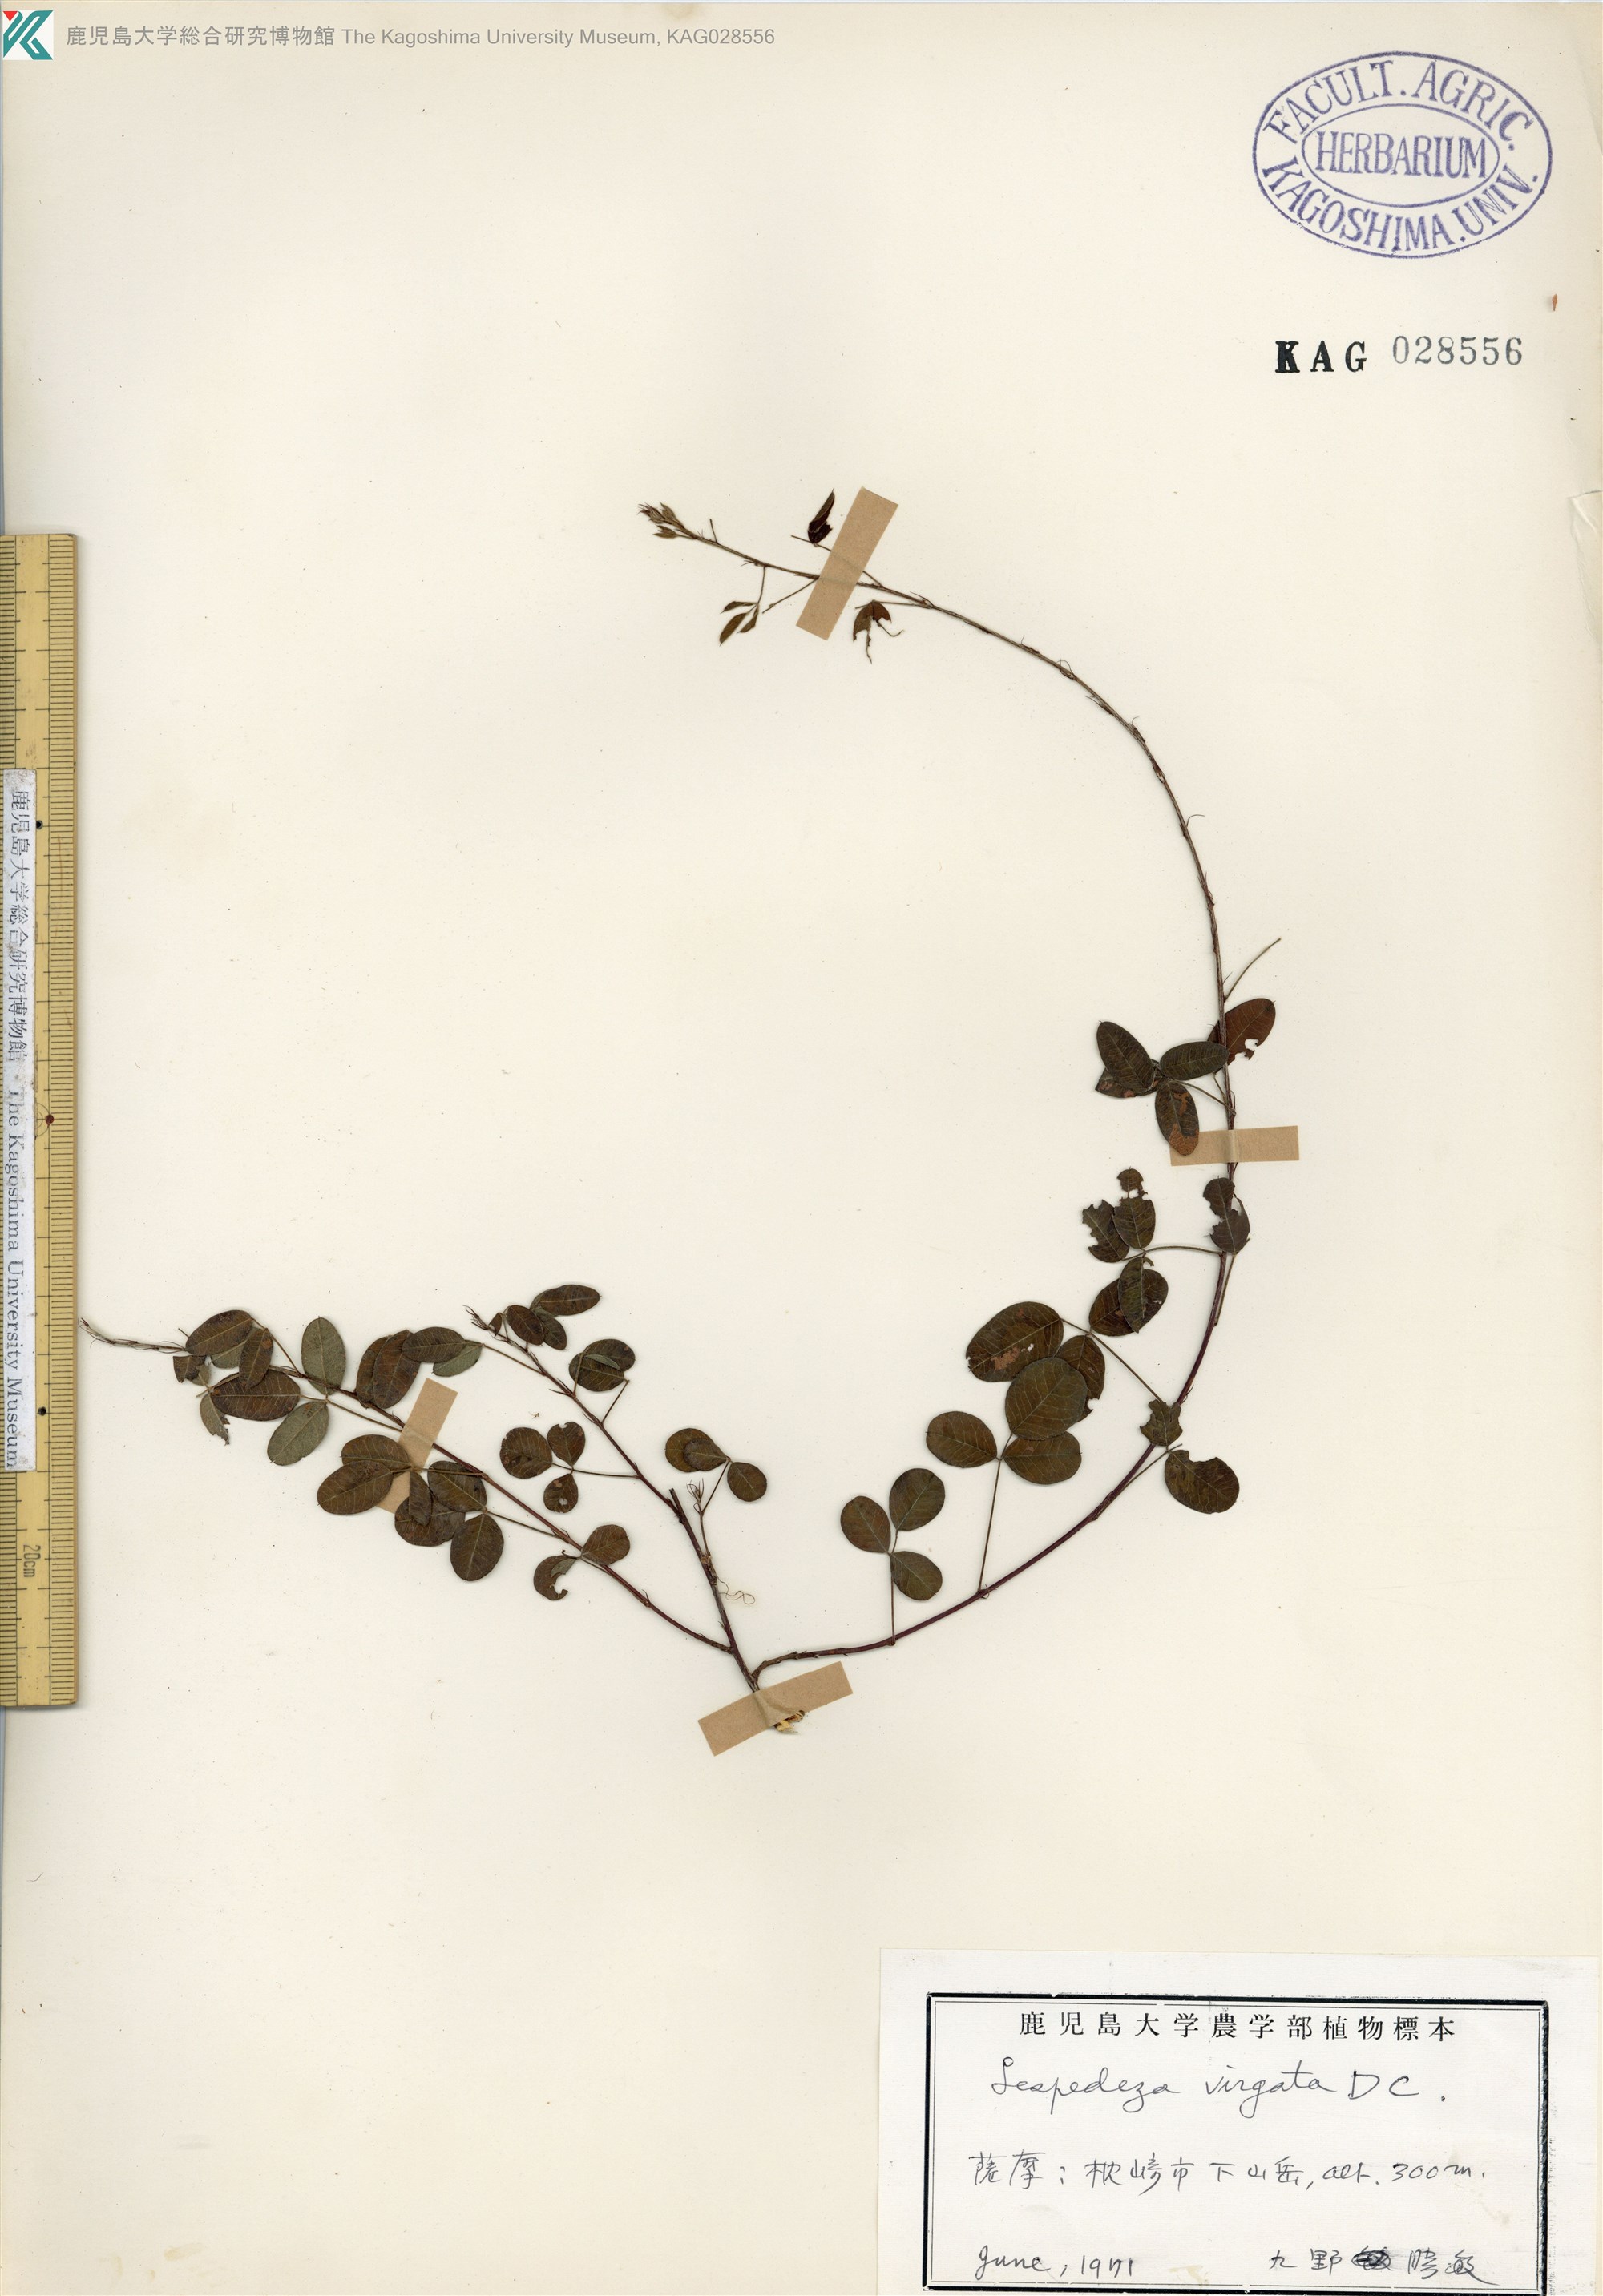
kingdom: Plantae
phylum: Tracheophyta
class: Magnoliopsida
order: Fabales
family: Fabaceae
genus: Lespedeza
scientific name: Lespedeza virgata
